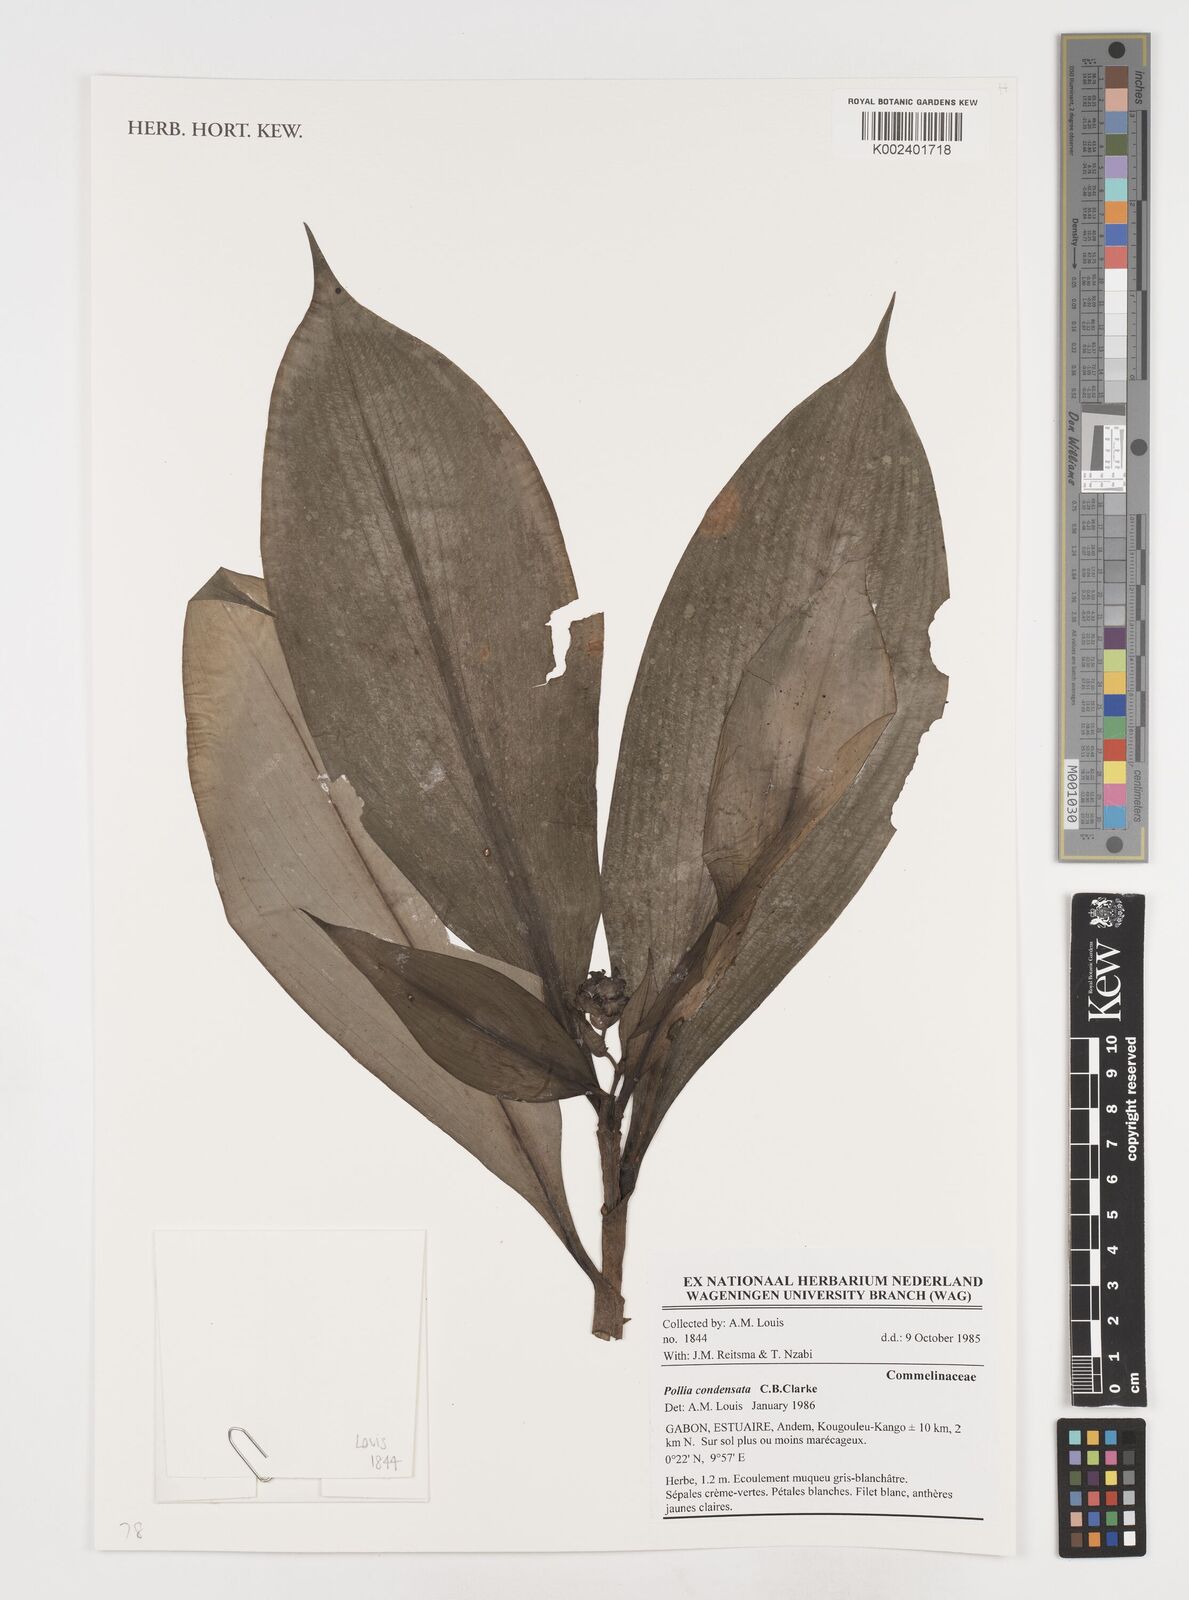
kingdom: Plantae
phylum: Tracheophyta
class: Liliopsida
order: Commelinales
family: Commelinaceae
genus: Pollia
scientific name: Pollia condensata
